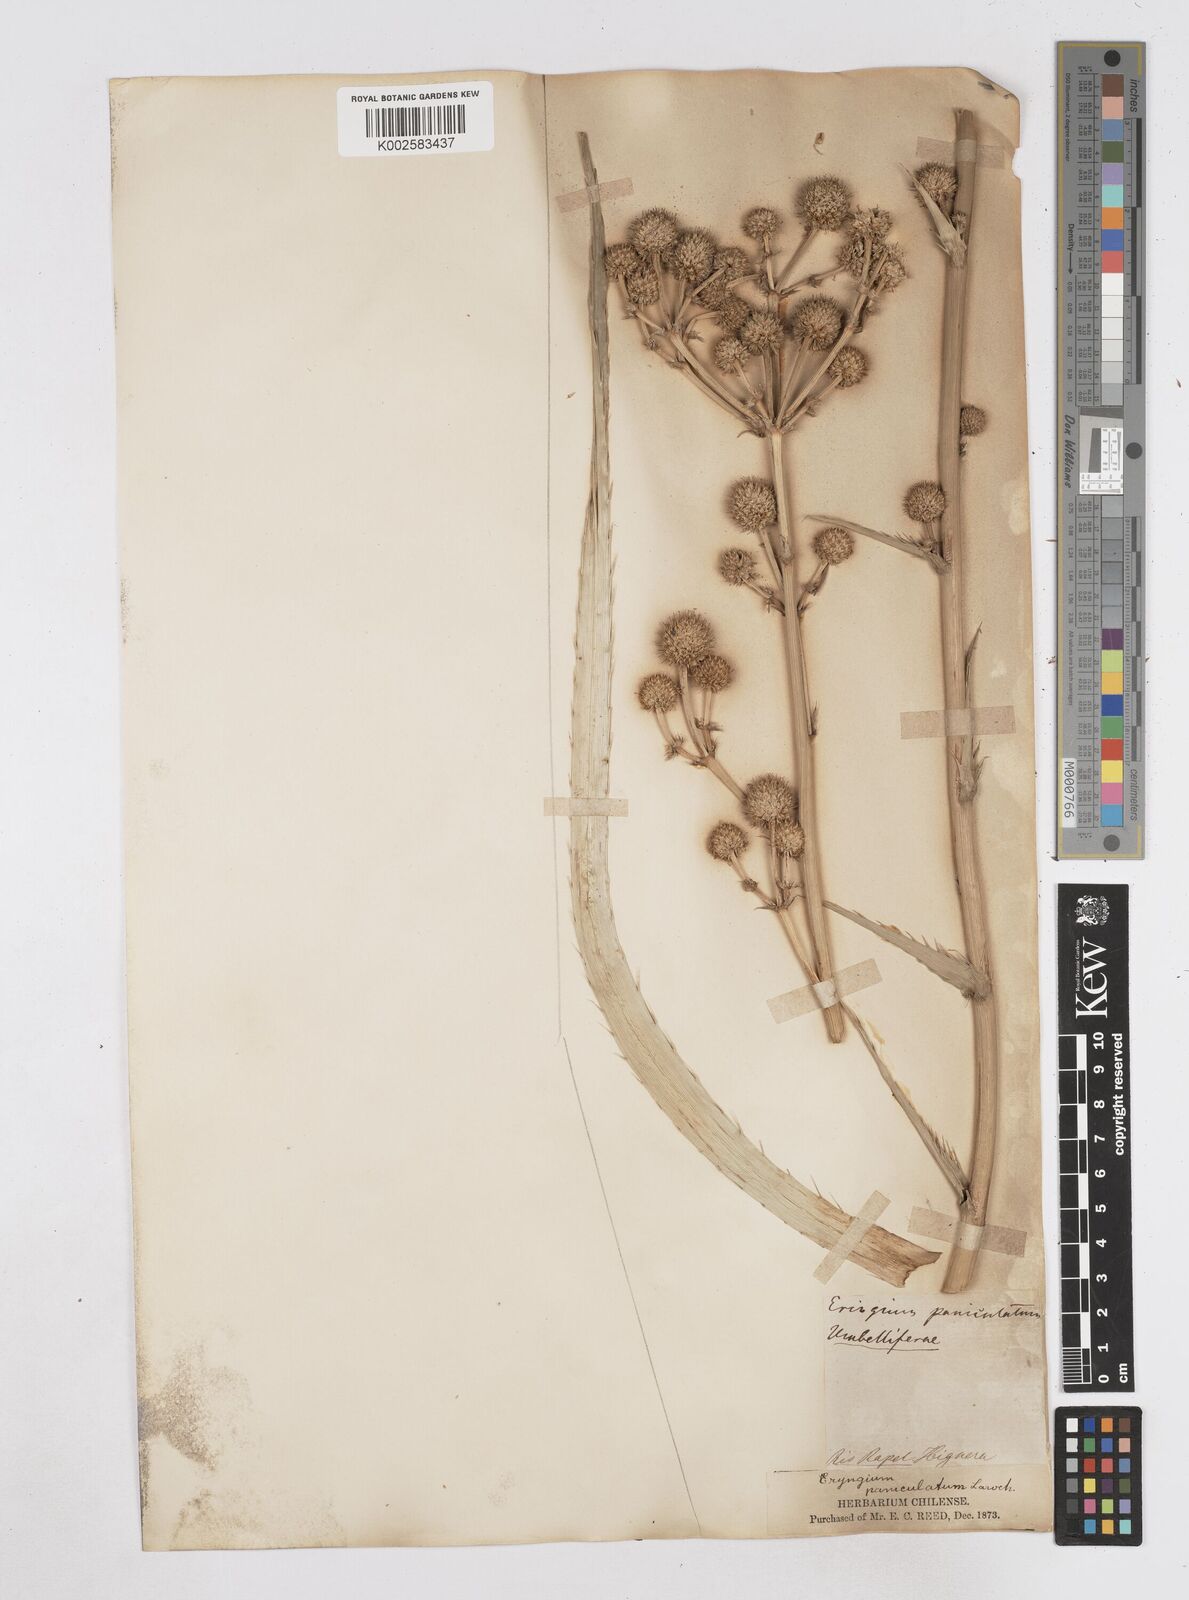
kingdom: Plantae
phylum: Tracheophyta
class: Magnoliopsida
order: Apiales
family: Apiaceae
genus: Eryngium
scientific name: Eryngium humboldtii
